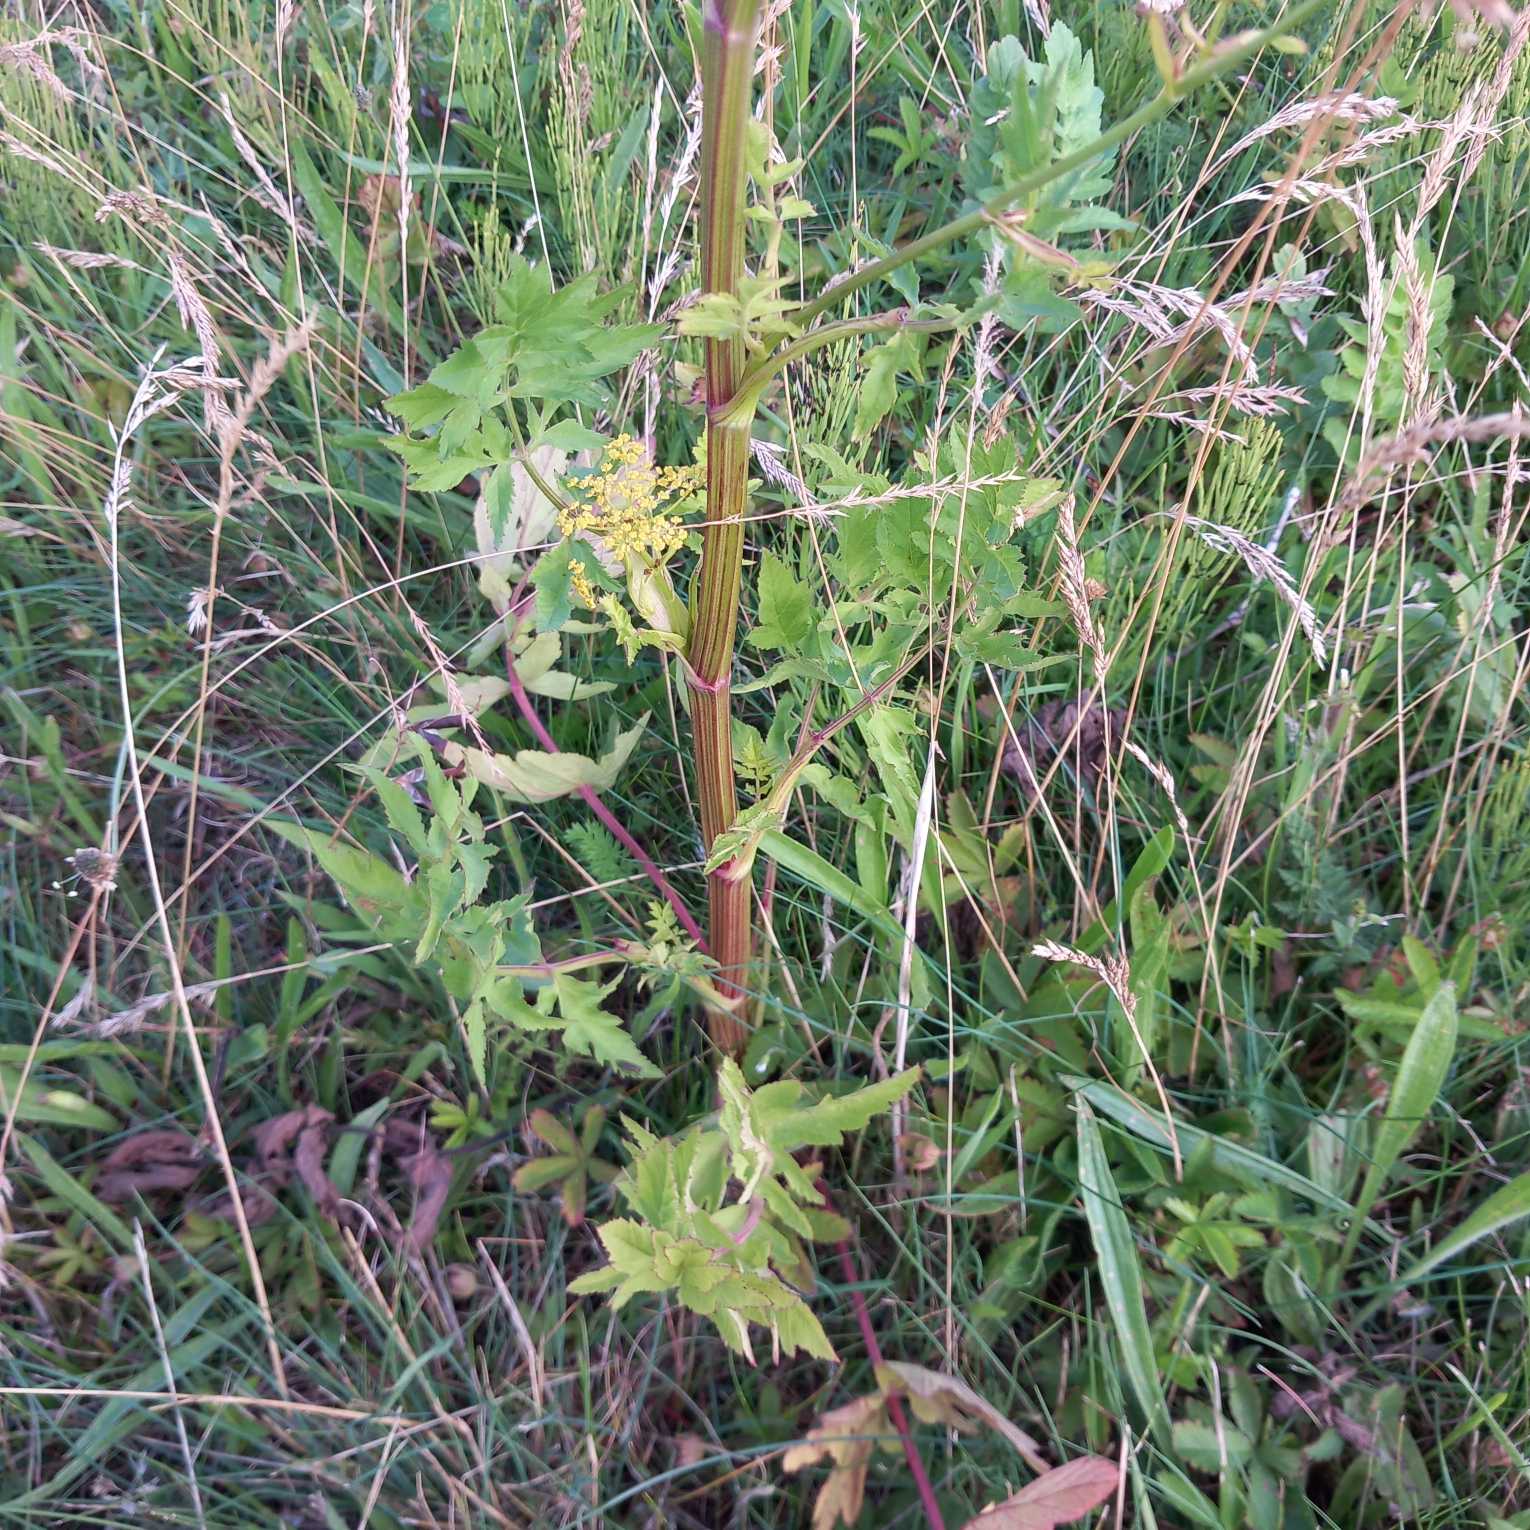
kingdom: Plantae
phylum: Tracheophyta
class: Magnoliopsida
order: Apiales
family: Apiaceae
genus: Pastinaca
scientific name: Pastinaca sativa
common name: Pastinak
